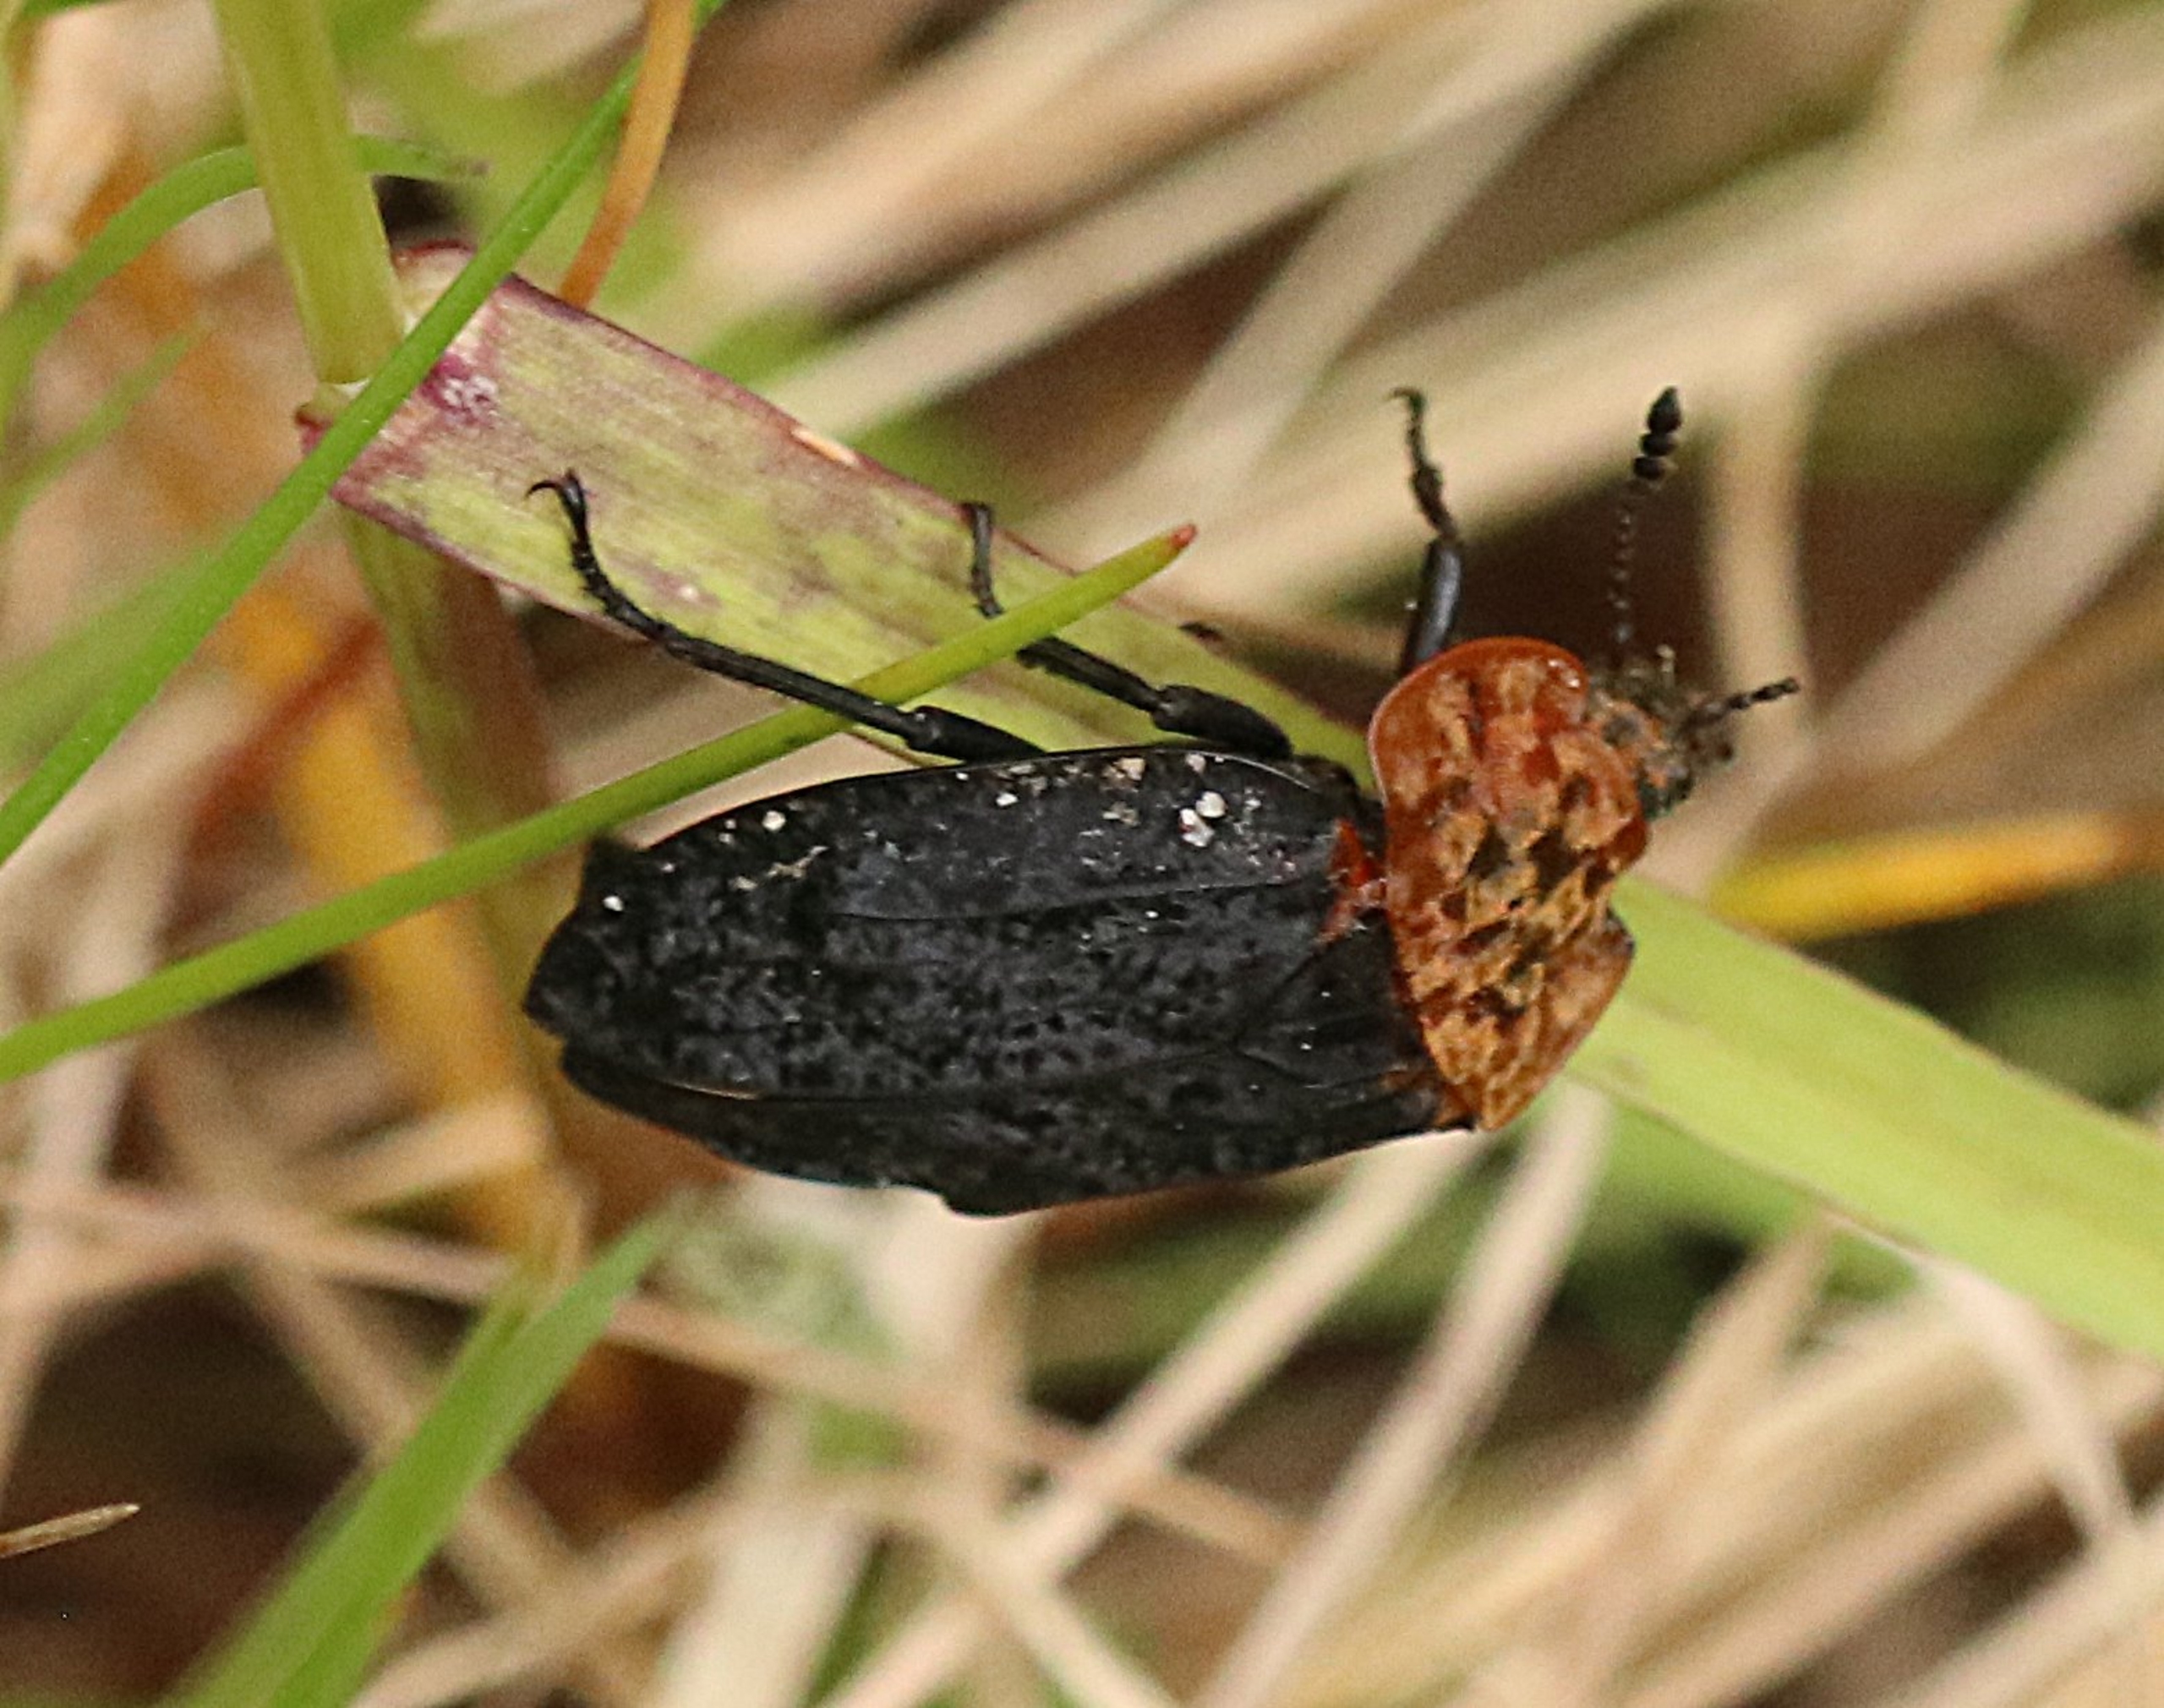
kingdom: Animalia
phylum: Arthropoda
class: Insecta
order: Coleoptera
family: Staphylinidae
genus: Oiceoptoma
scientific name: Oiceoptoma thoracicum
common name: Rødbrystet ådselbille
